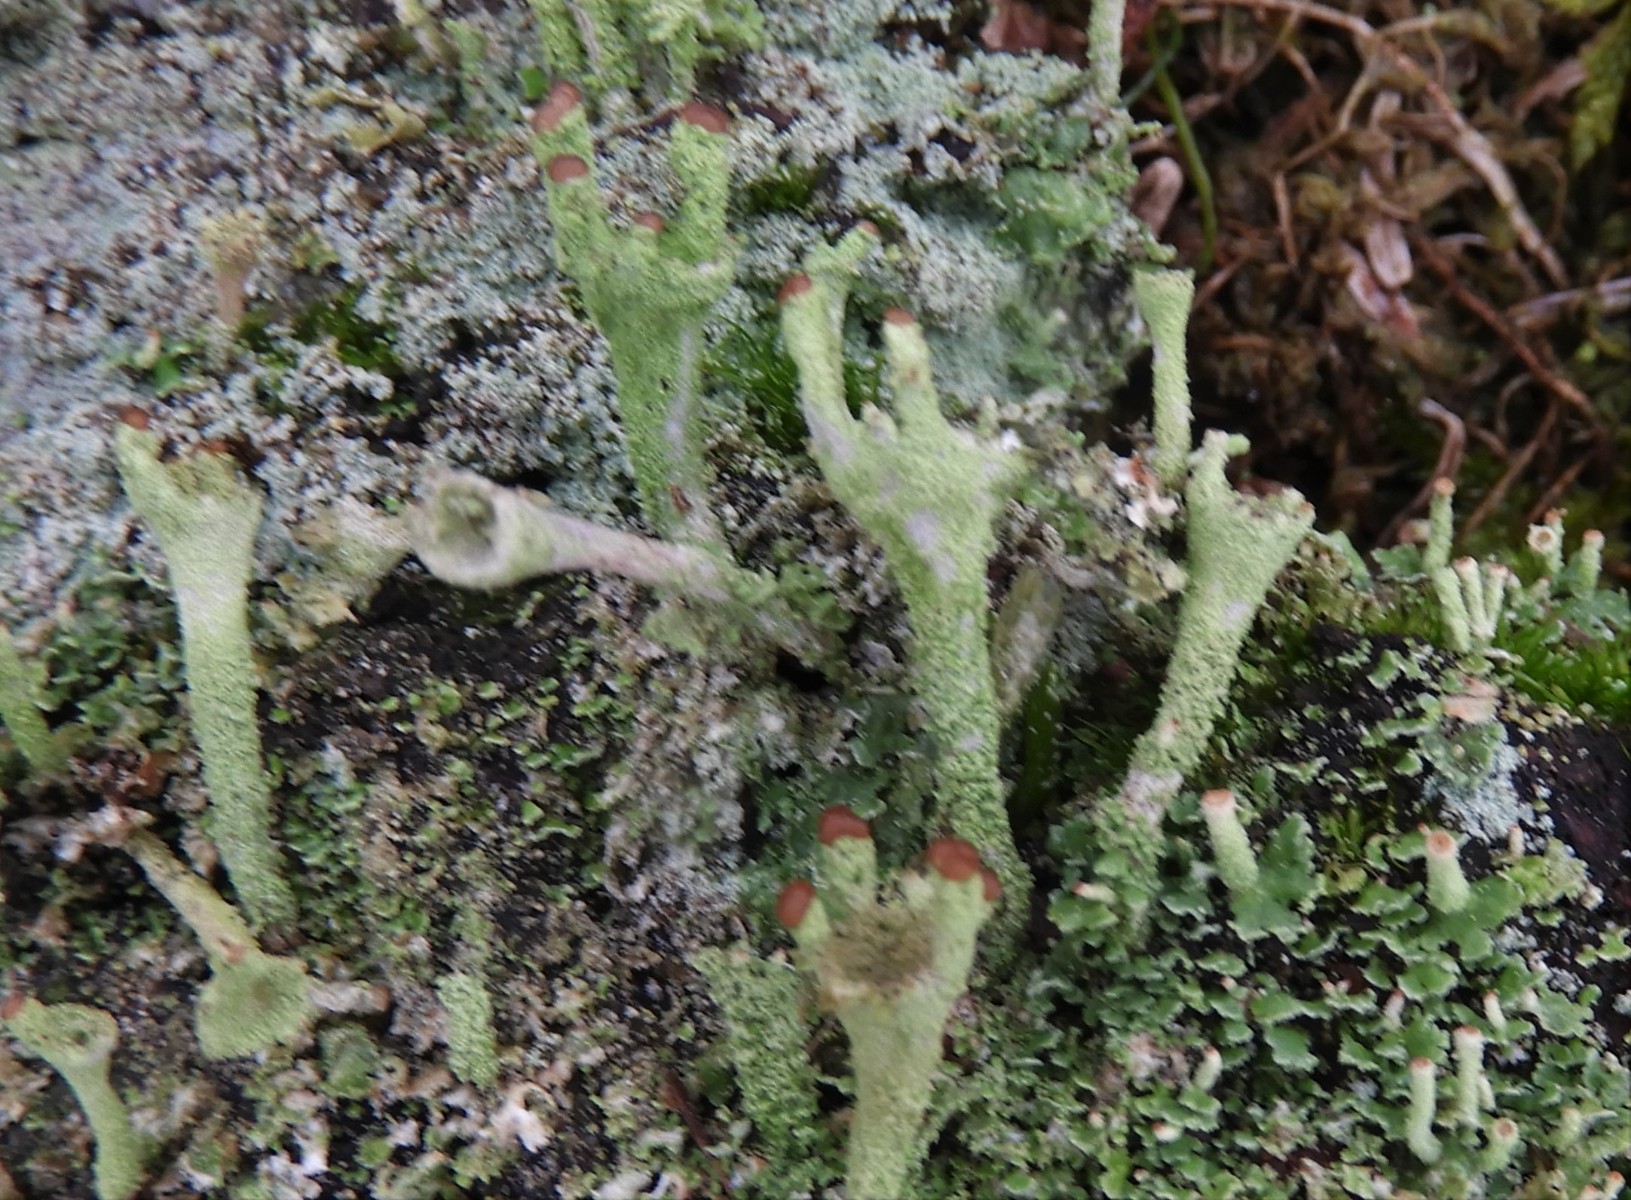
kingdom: Fungi
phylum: Ascomycota
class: Lecanoromycetes
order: Lecanorales
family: Cladoniaceae
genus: Cladonia
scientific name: Cladonia ramulosa
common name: kliddet bægerlav
